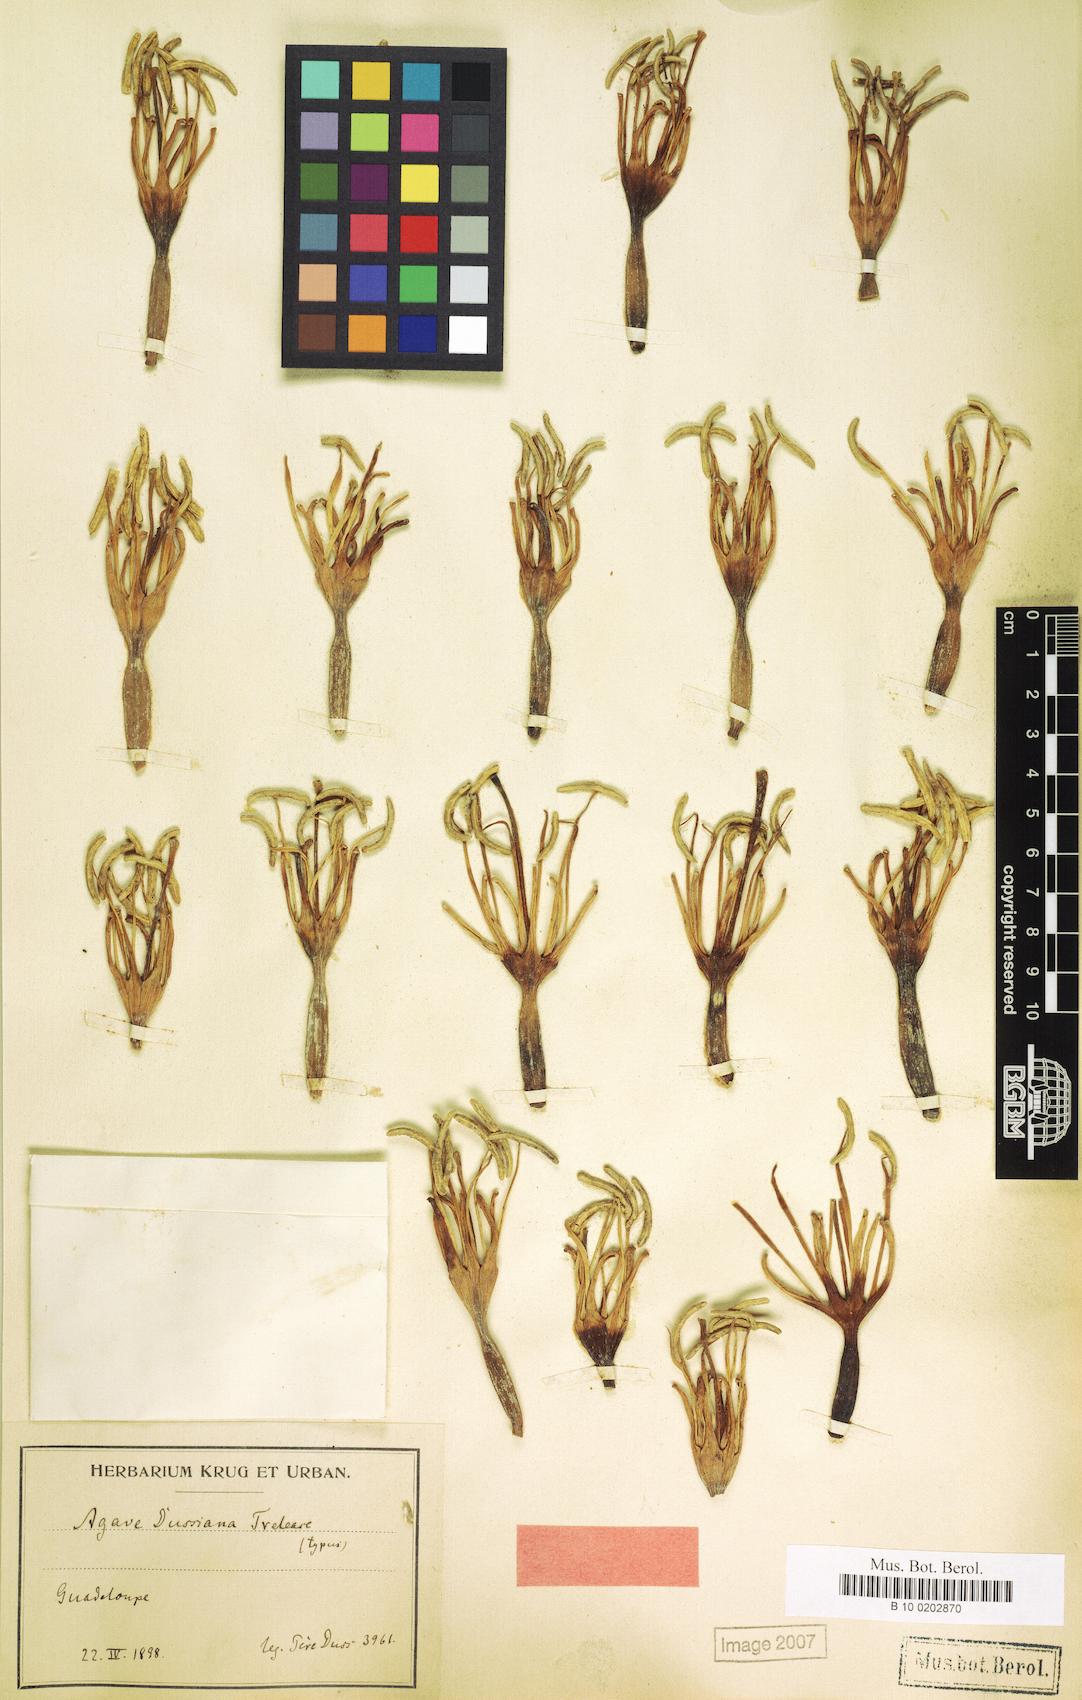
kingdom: Plantae
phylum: Tracheophyta
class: Liliopsida
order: Asparagales
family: Asparagaceae
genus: Agave
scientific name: Agave dussiana
